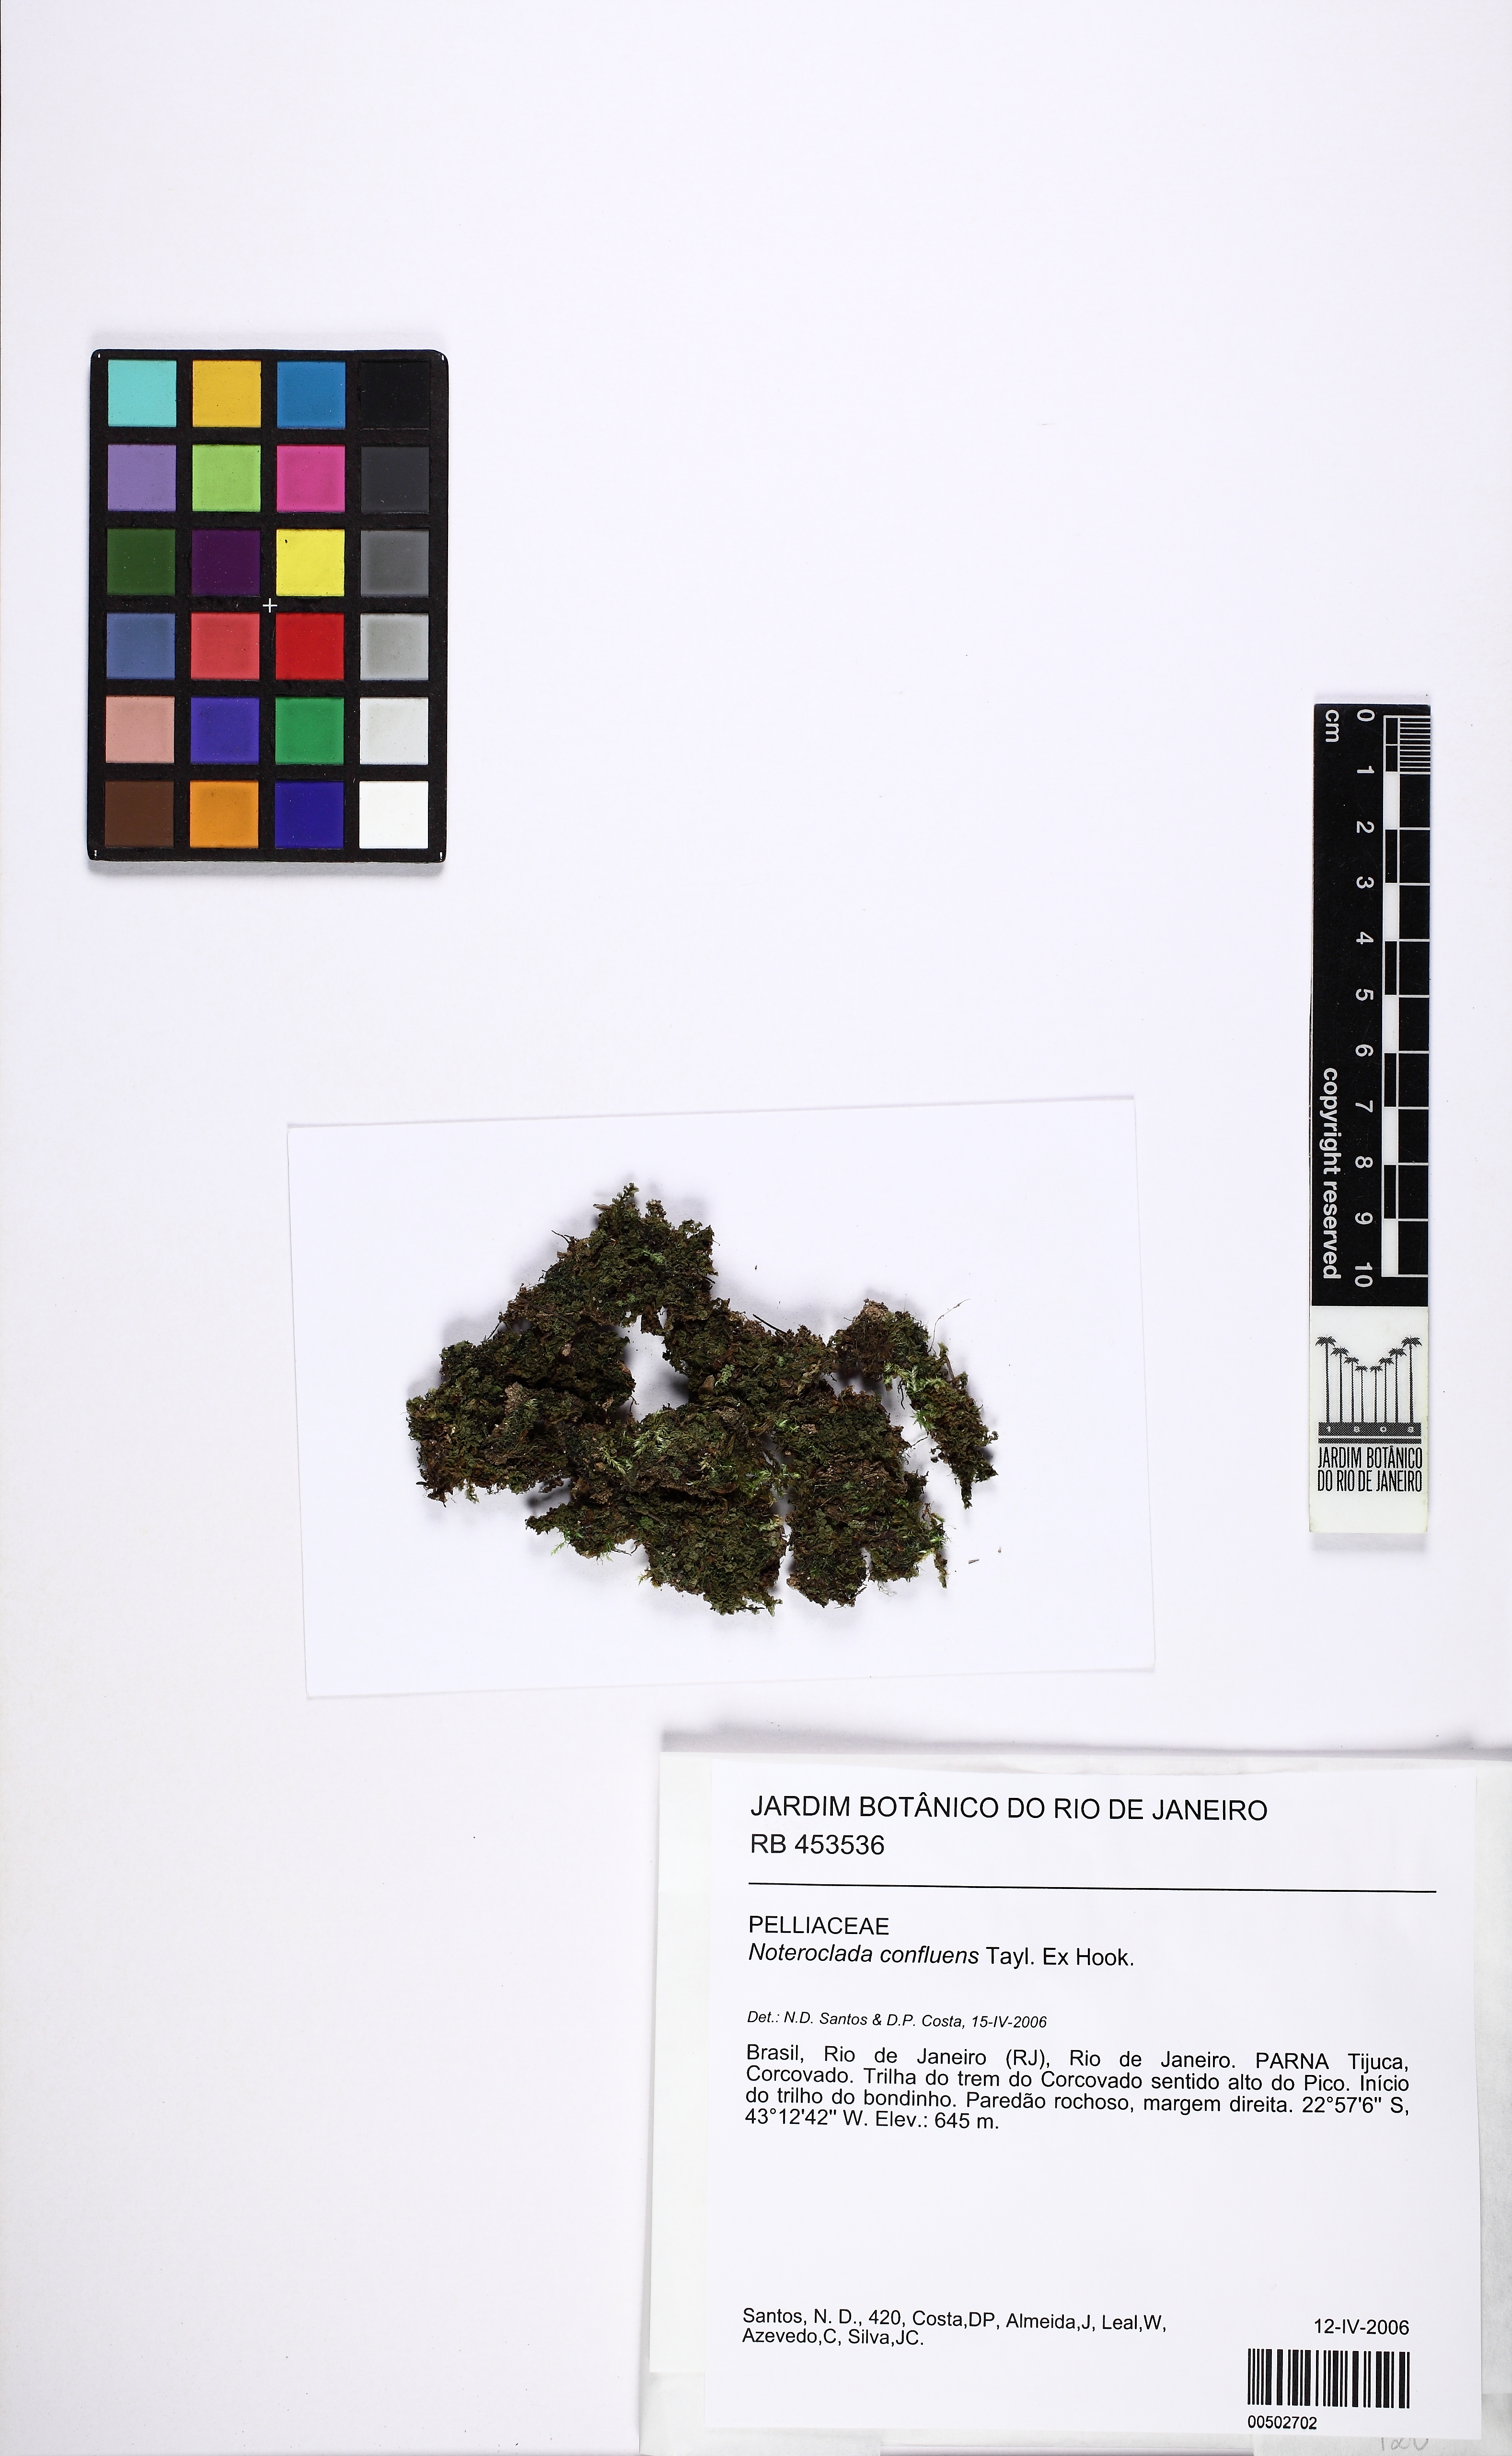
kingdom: Plantae
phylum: Marchantiophyta
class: Jungermanniopsida
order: Pelliales
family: Noterocladaceae
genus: Noteroclada
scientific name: Noteroclada confluens
